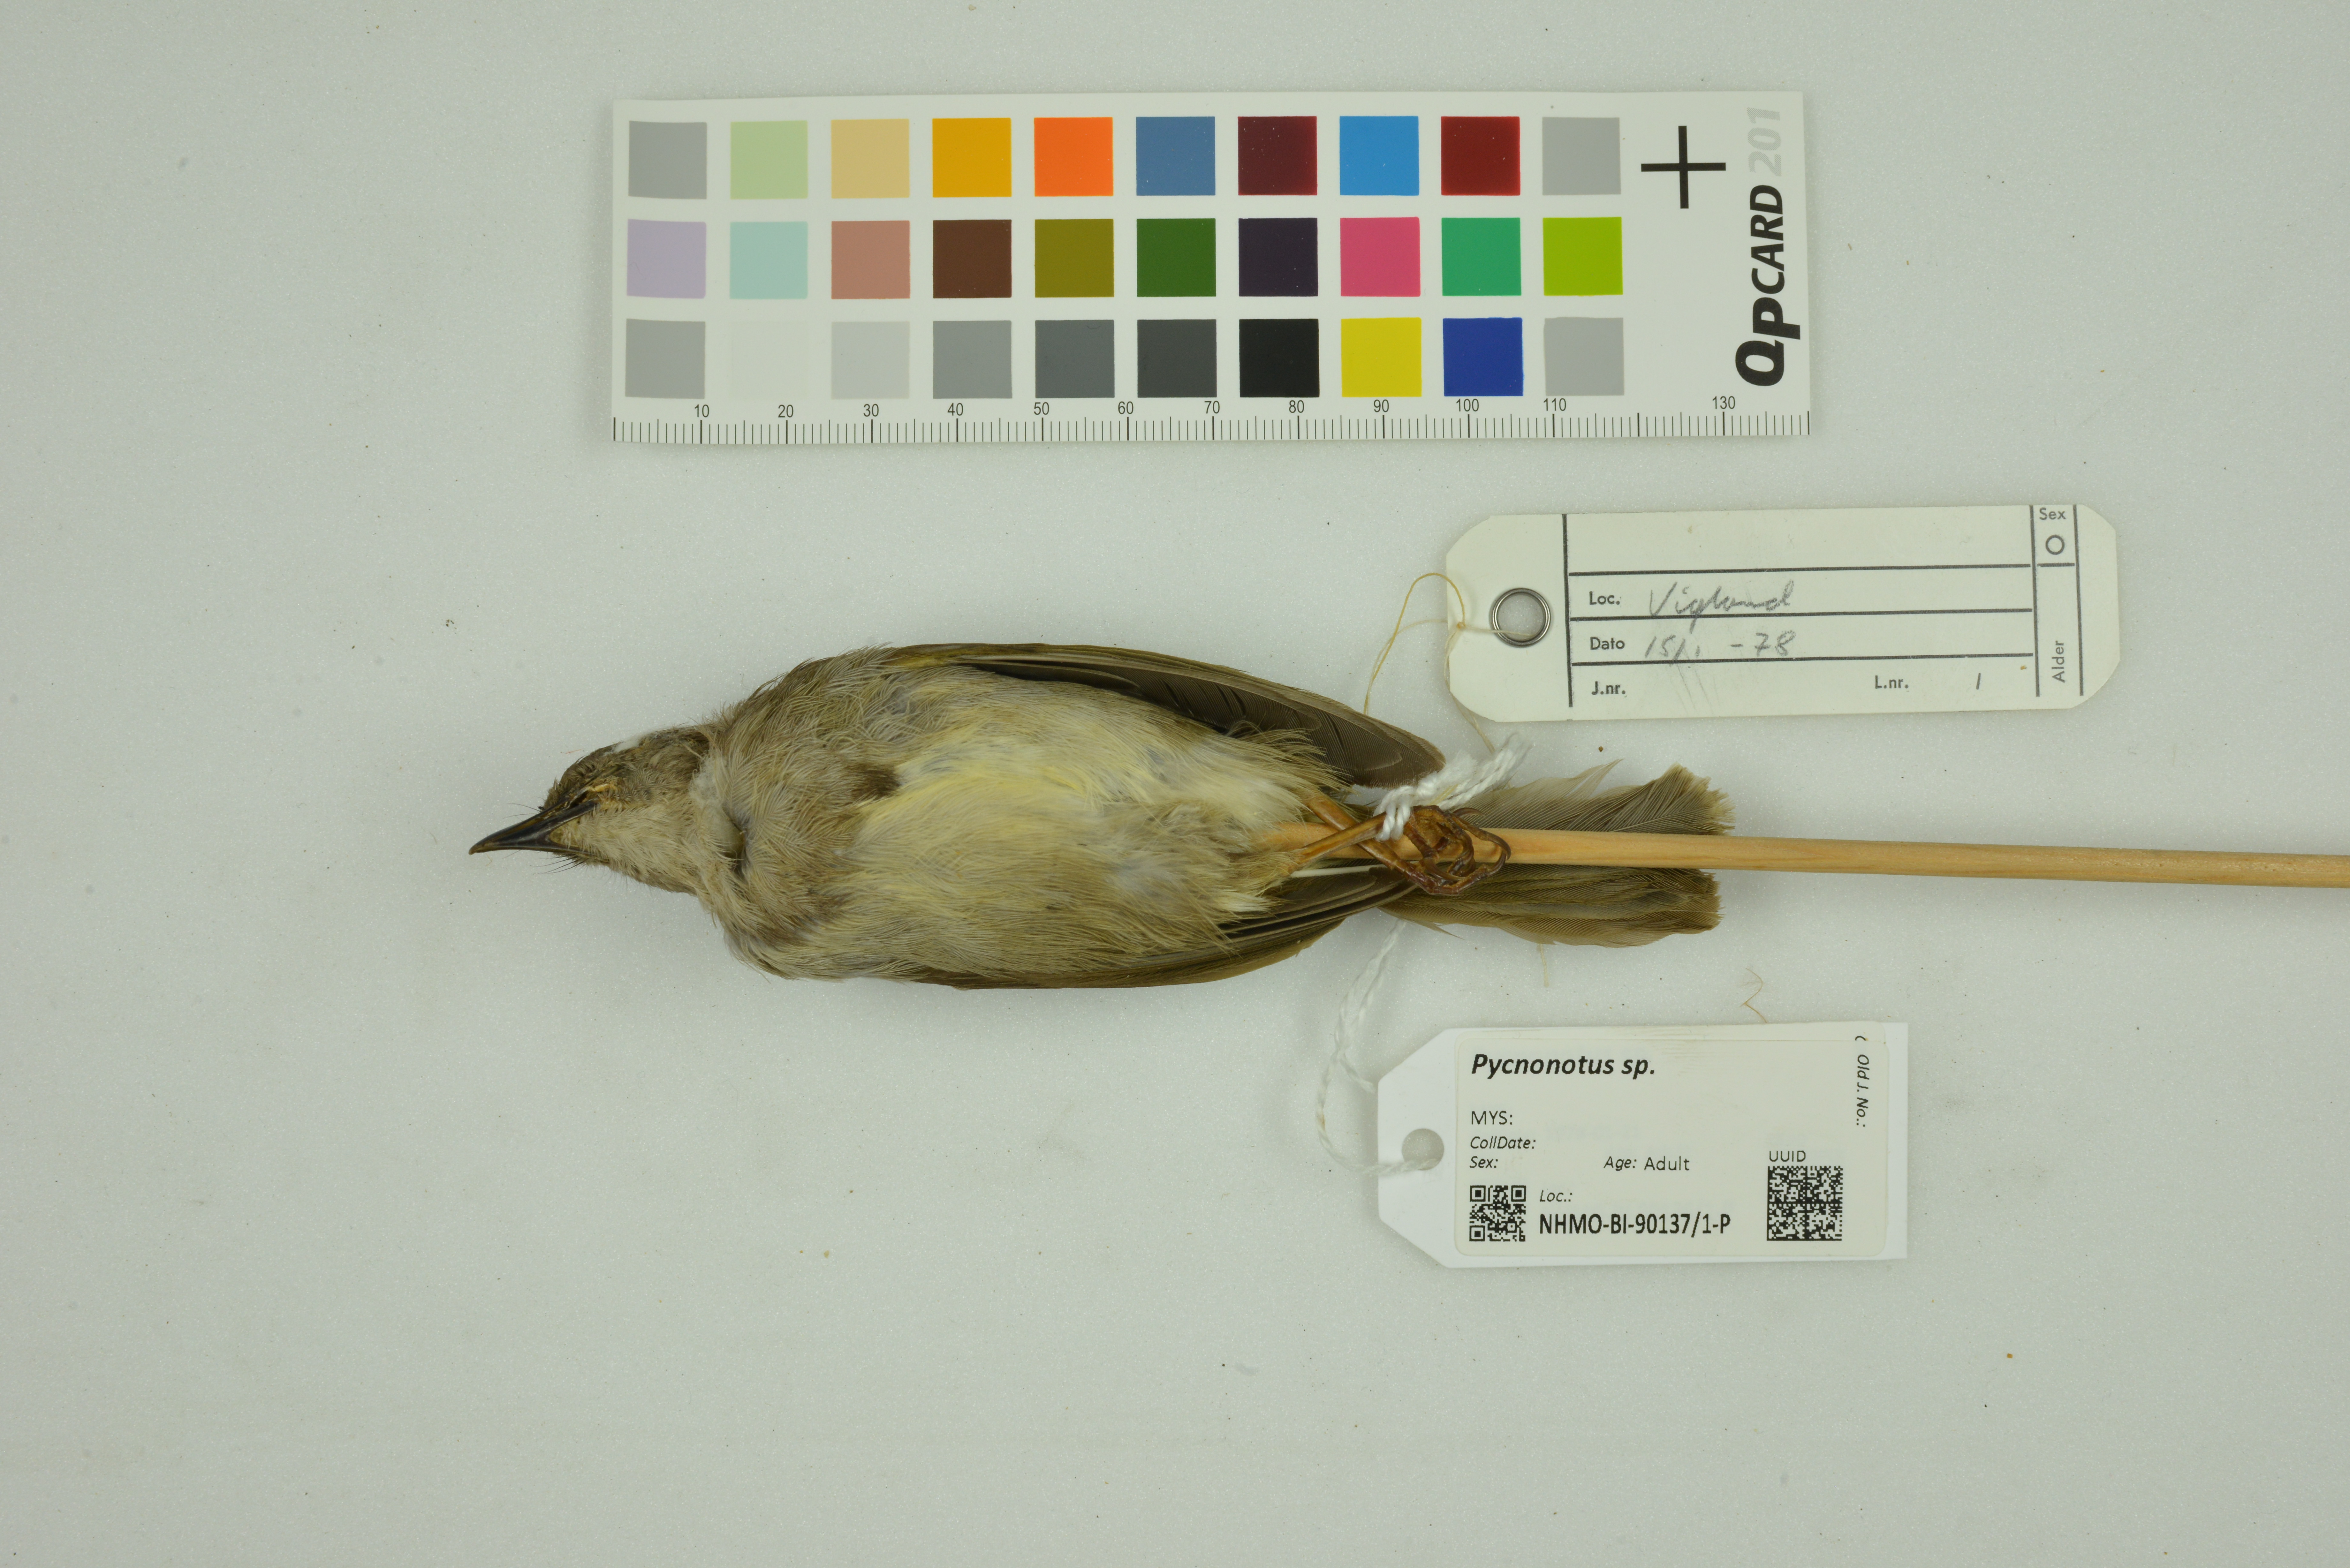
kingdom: Animalia
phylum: Chordata
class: Aves
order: Passeriformes
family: Pycnonotidae
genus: Pycnonotus
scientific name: Pycnonotus
